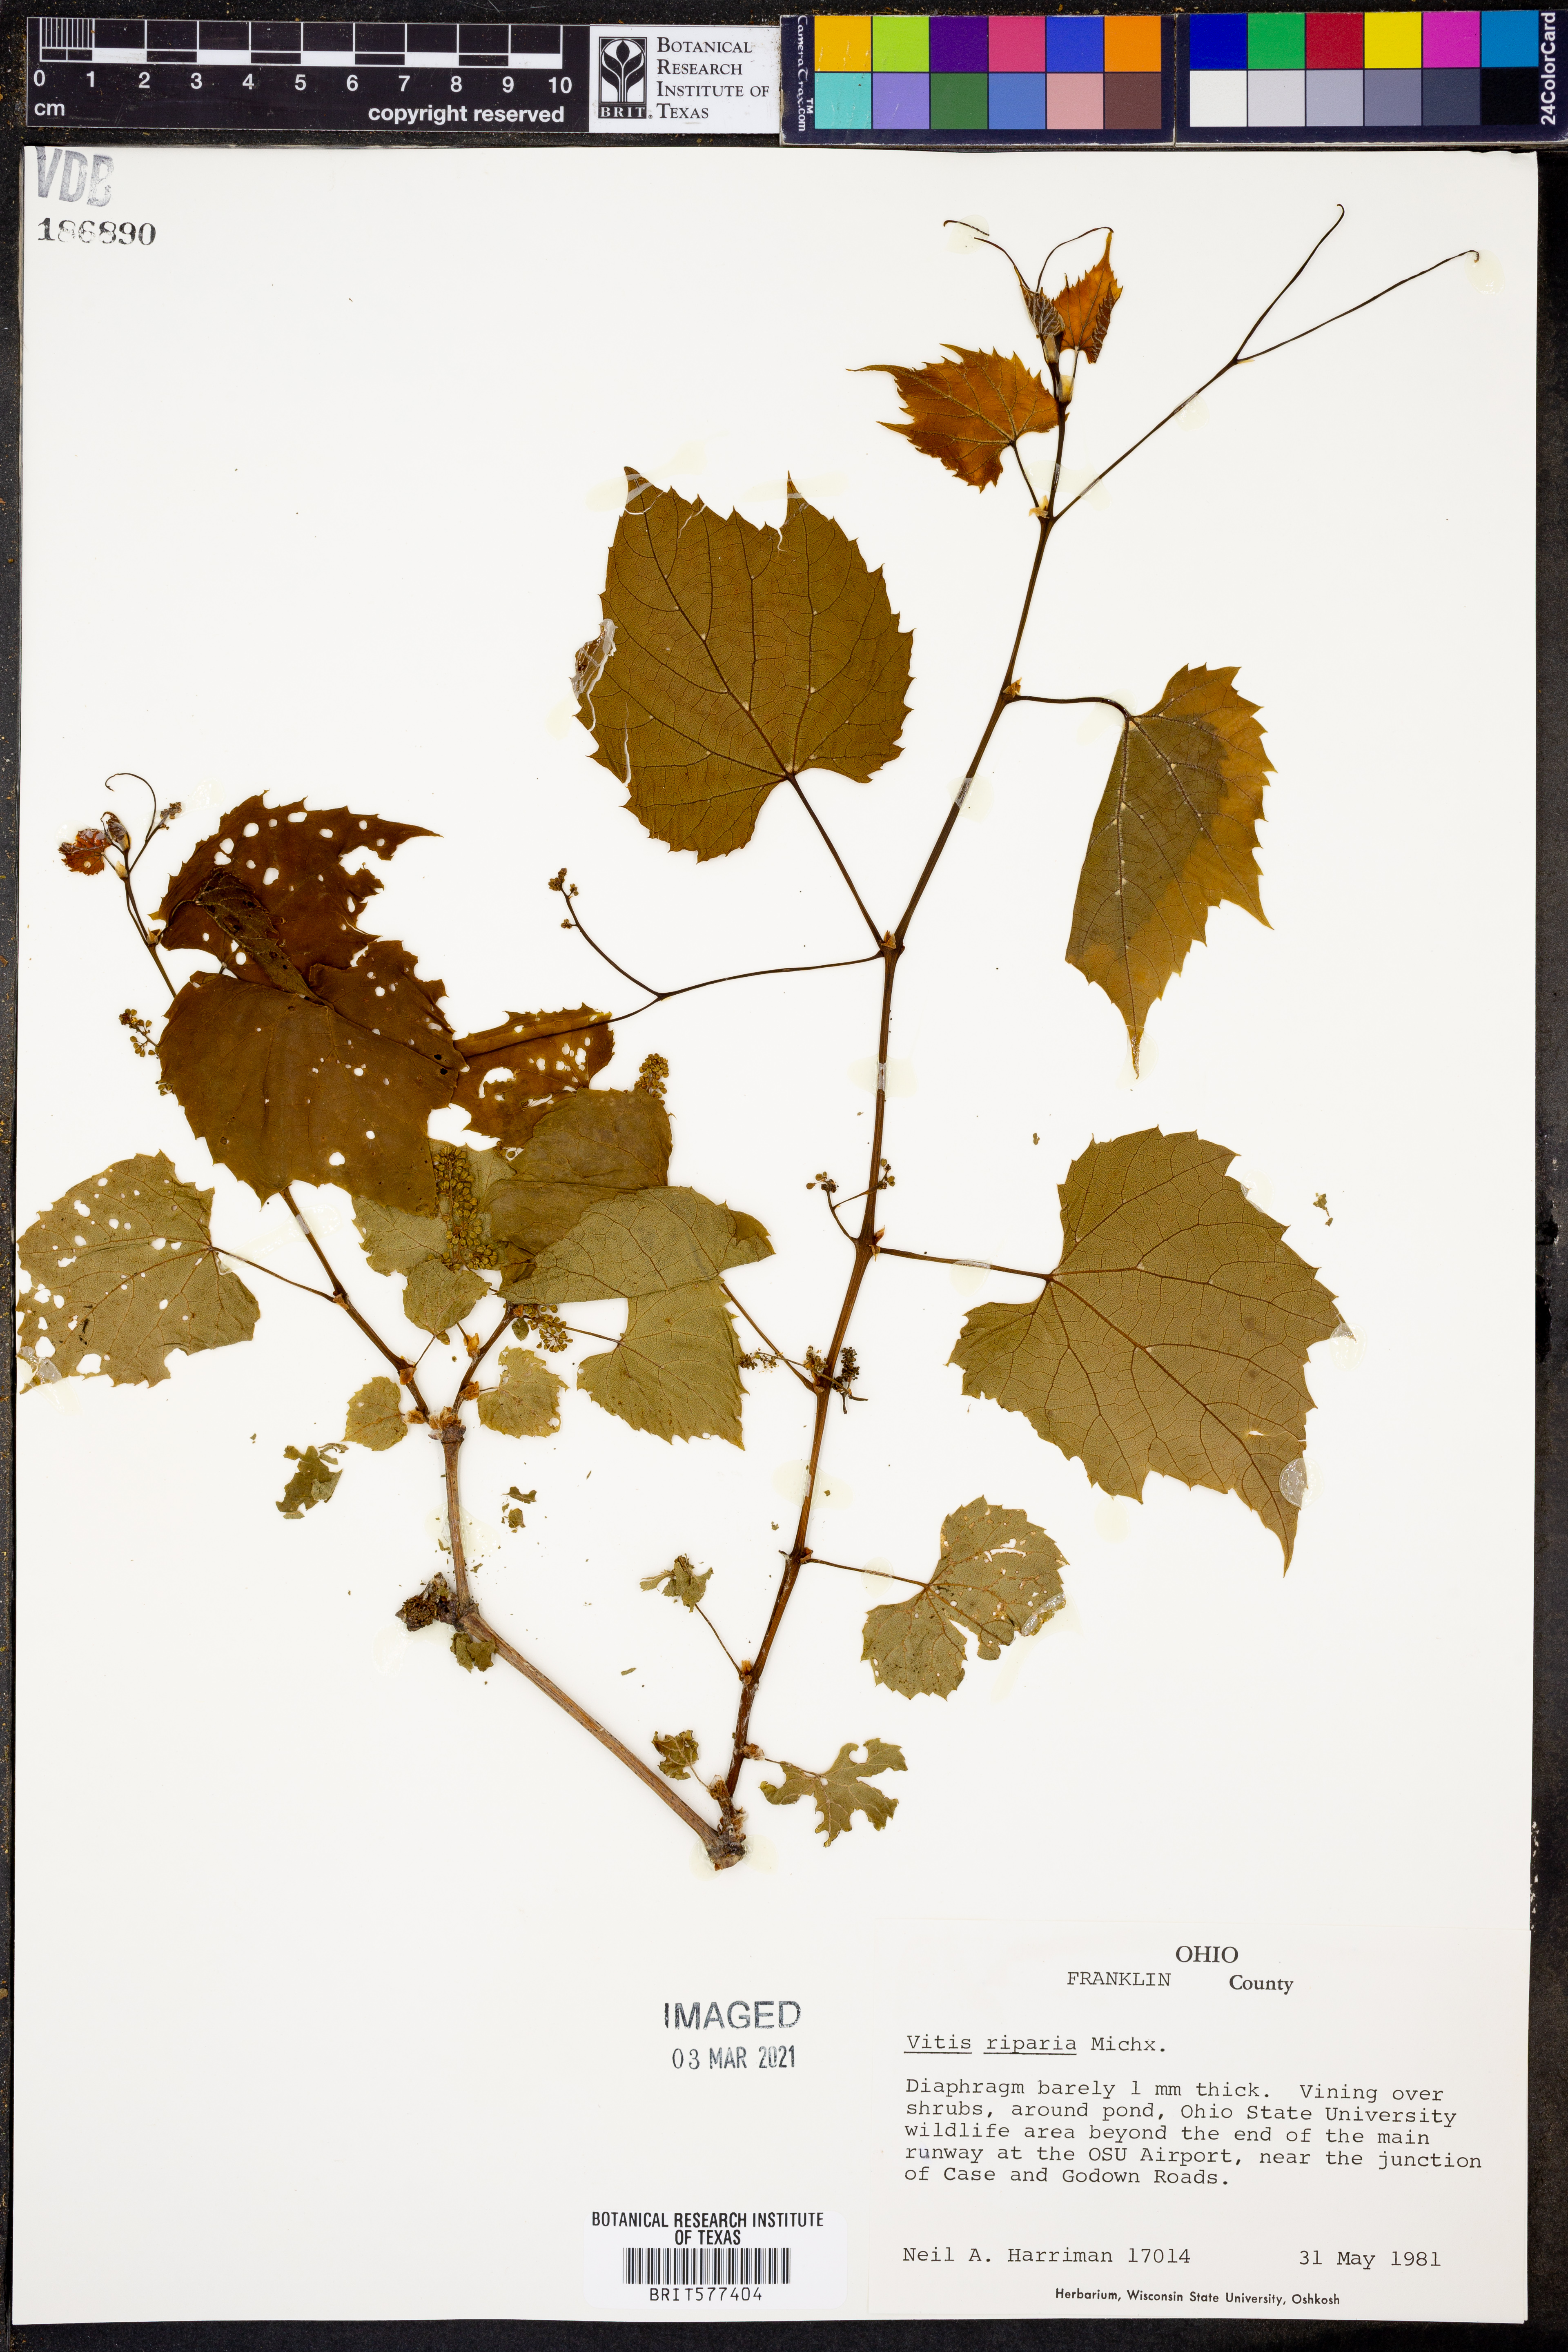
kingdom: Plantae
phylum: Tracheophyta
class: Magnoliopsida
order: Vitales
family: Vitaceae
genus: Vitis
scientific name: Vitis riparia
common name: Frost grape
